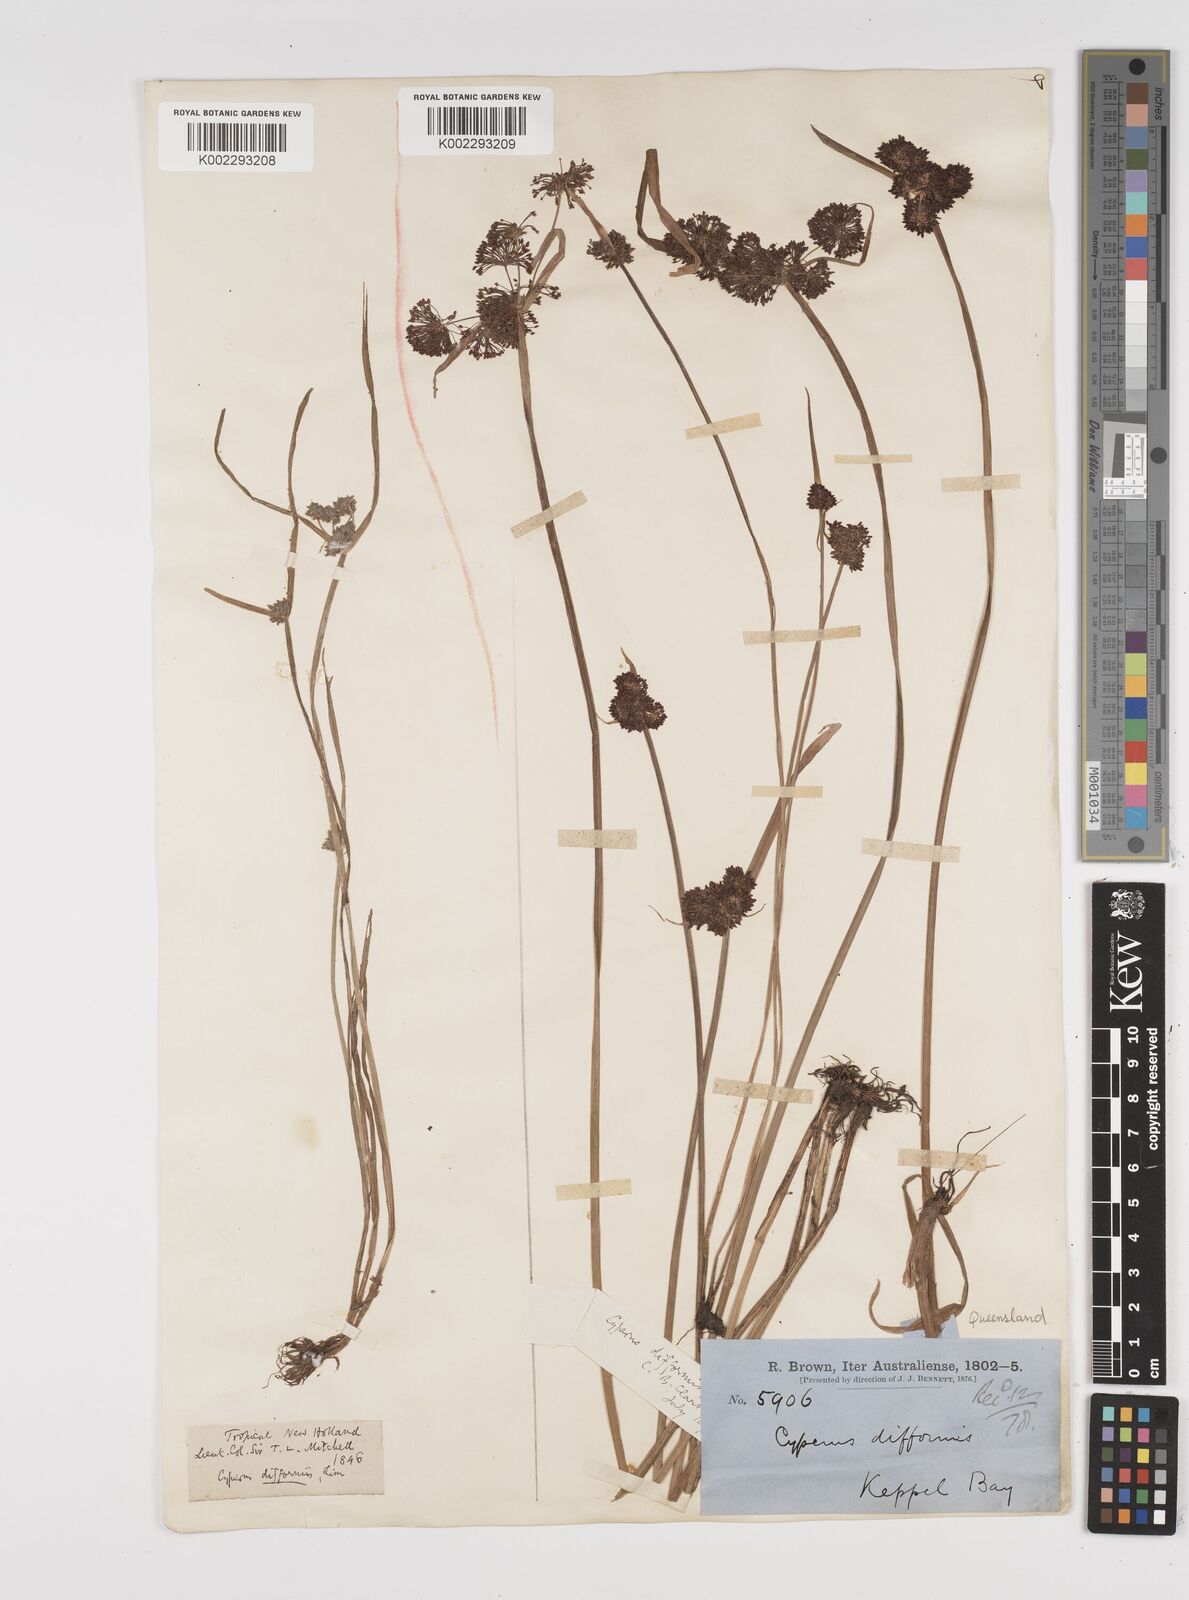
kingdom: Plantae
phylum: Tracheophyta
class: Liliopsida
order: Poales
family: Cyperaceae
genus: Cyperus
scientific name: Cyperus difformis
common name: Variable flatsedge
